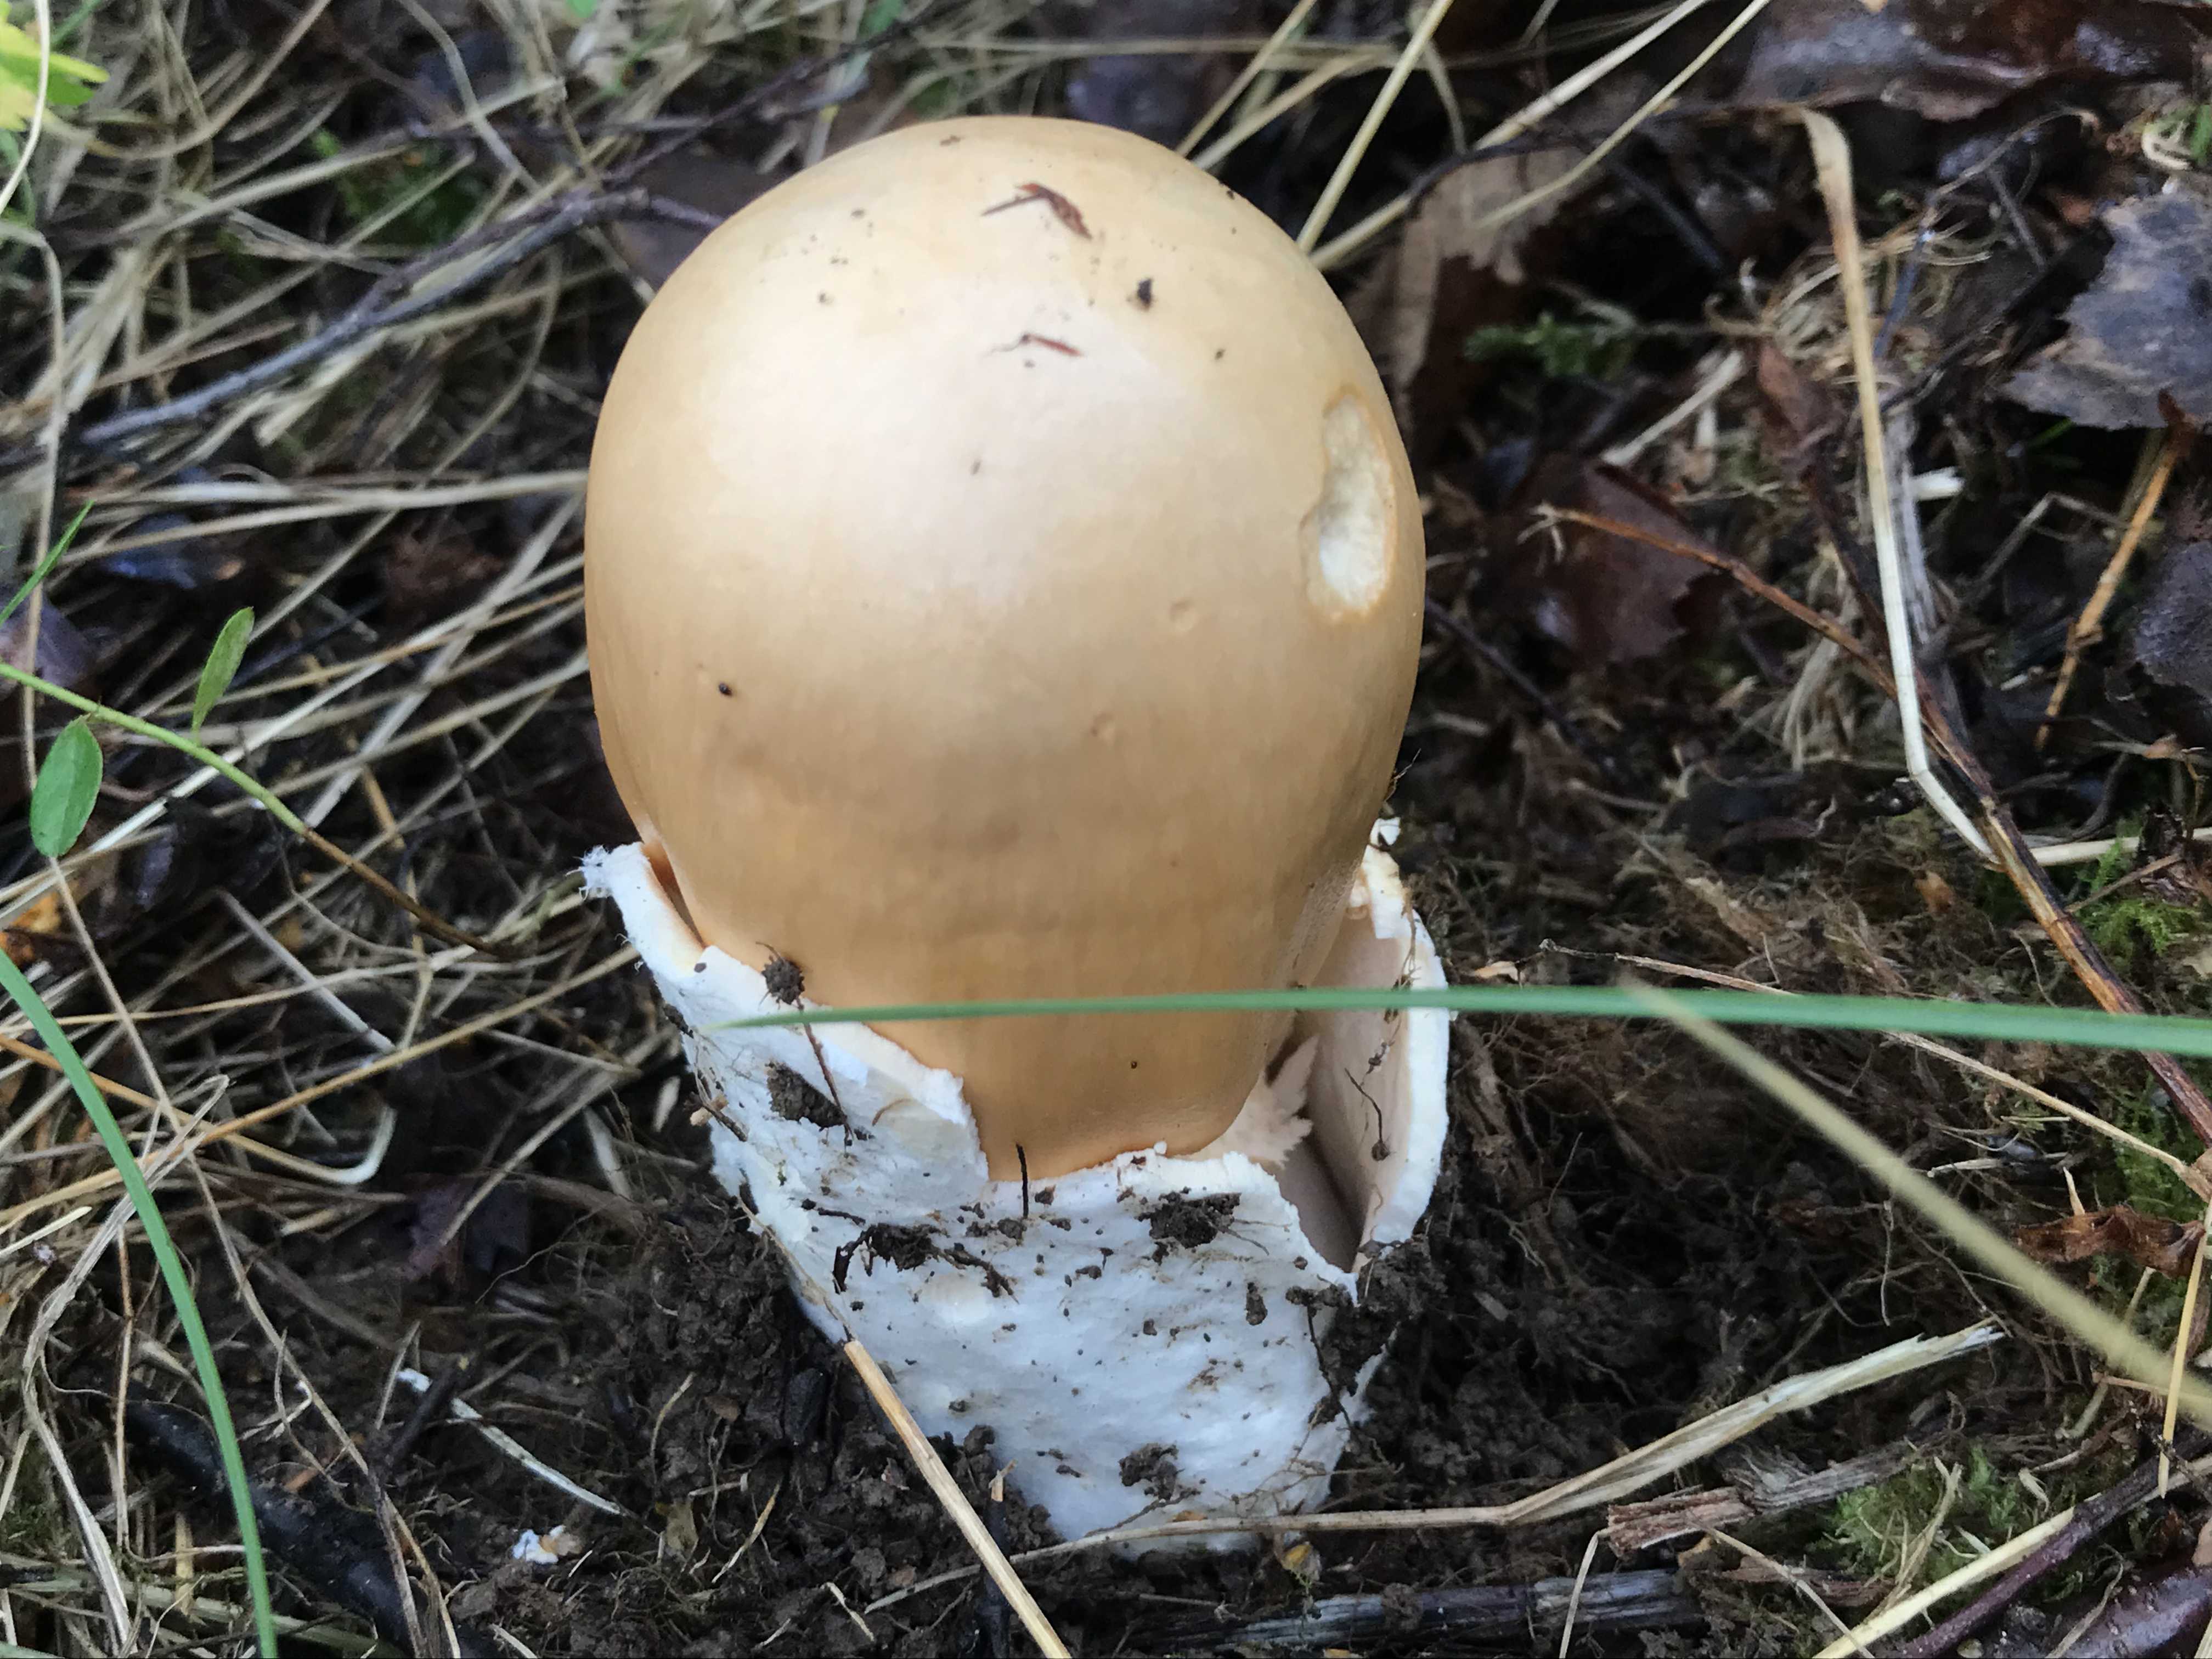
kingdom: Fungi
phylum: Basidiomycota
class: Agaricomycetes
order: Agaricales
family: Amanitaceae
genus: Amanita
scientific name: Amanita crocea
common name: gylden kam-fluesvamp
